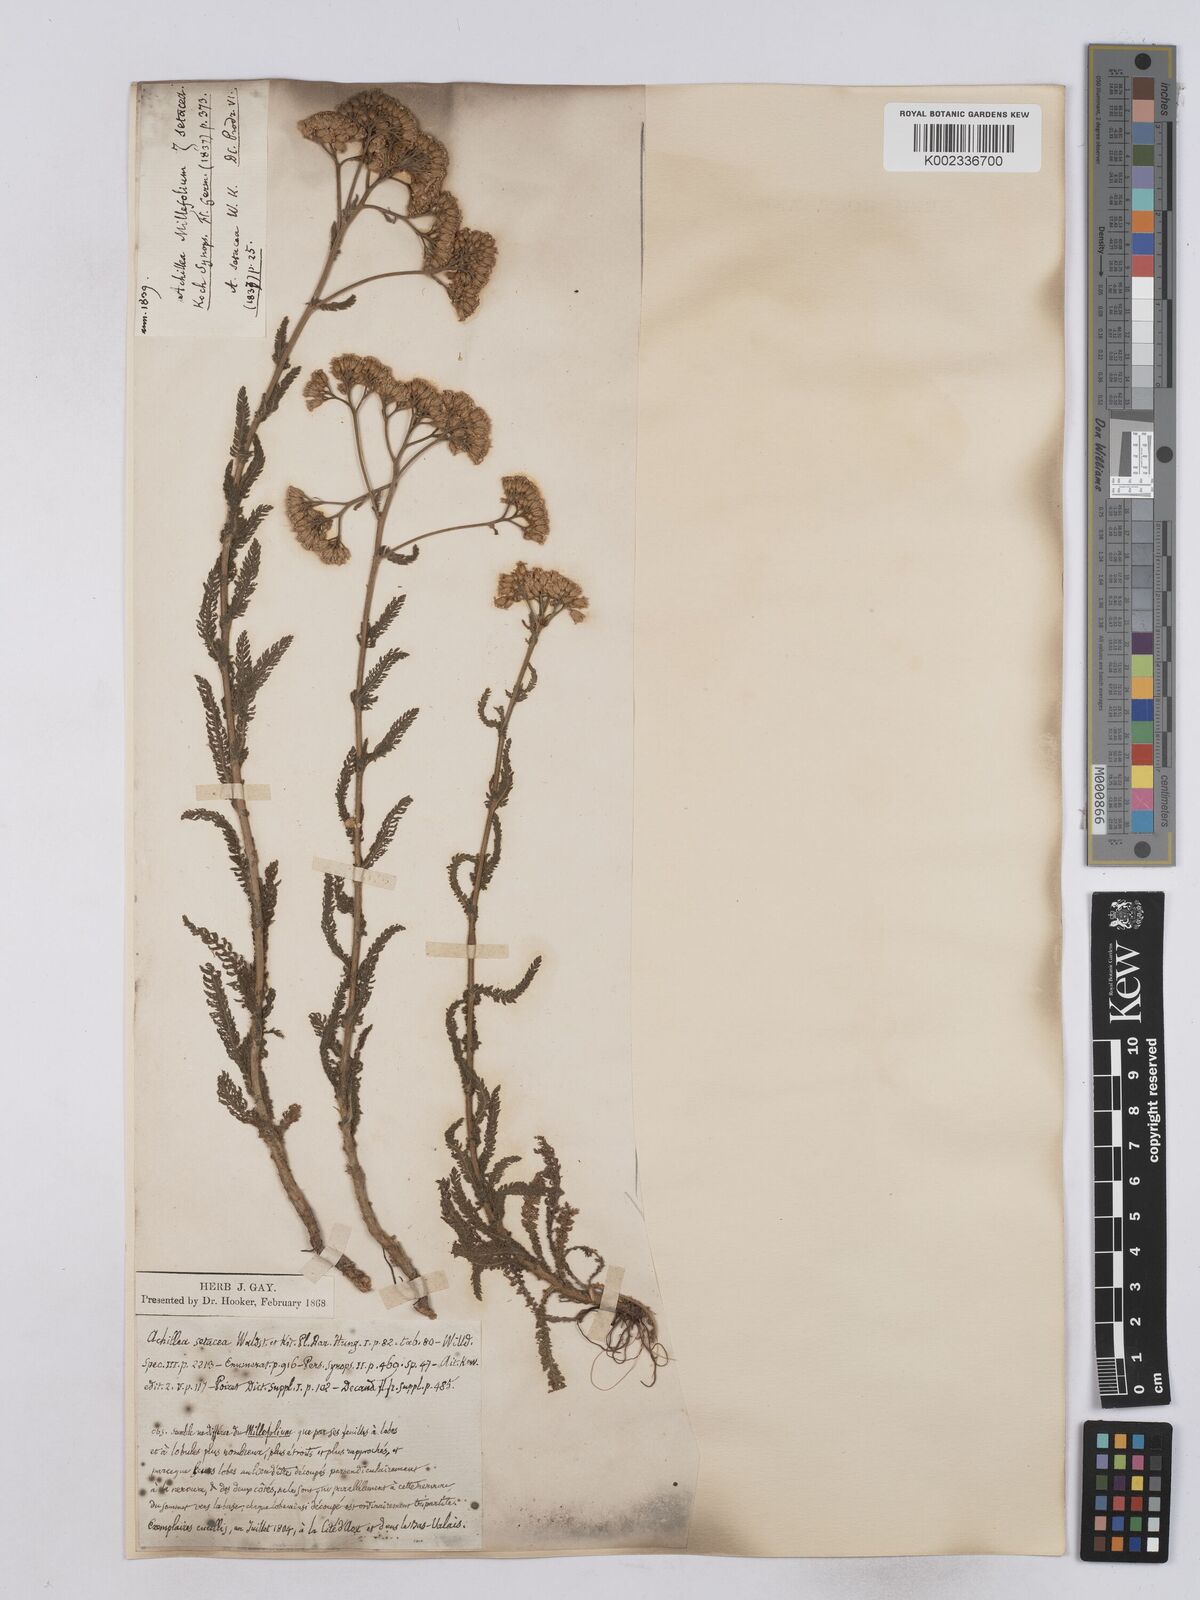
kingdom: Plantae
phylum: Tracheophyta
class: Magnoliopsida
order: Asterales
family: Asteraceae
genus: Achillea
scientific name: Achillea setacea
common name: Bristly yarrow
